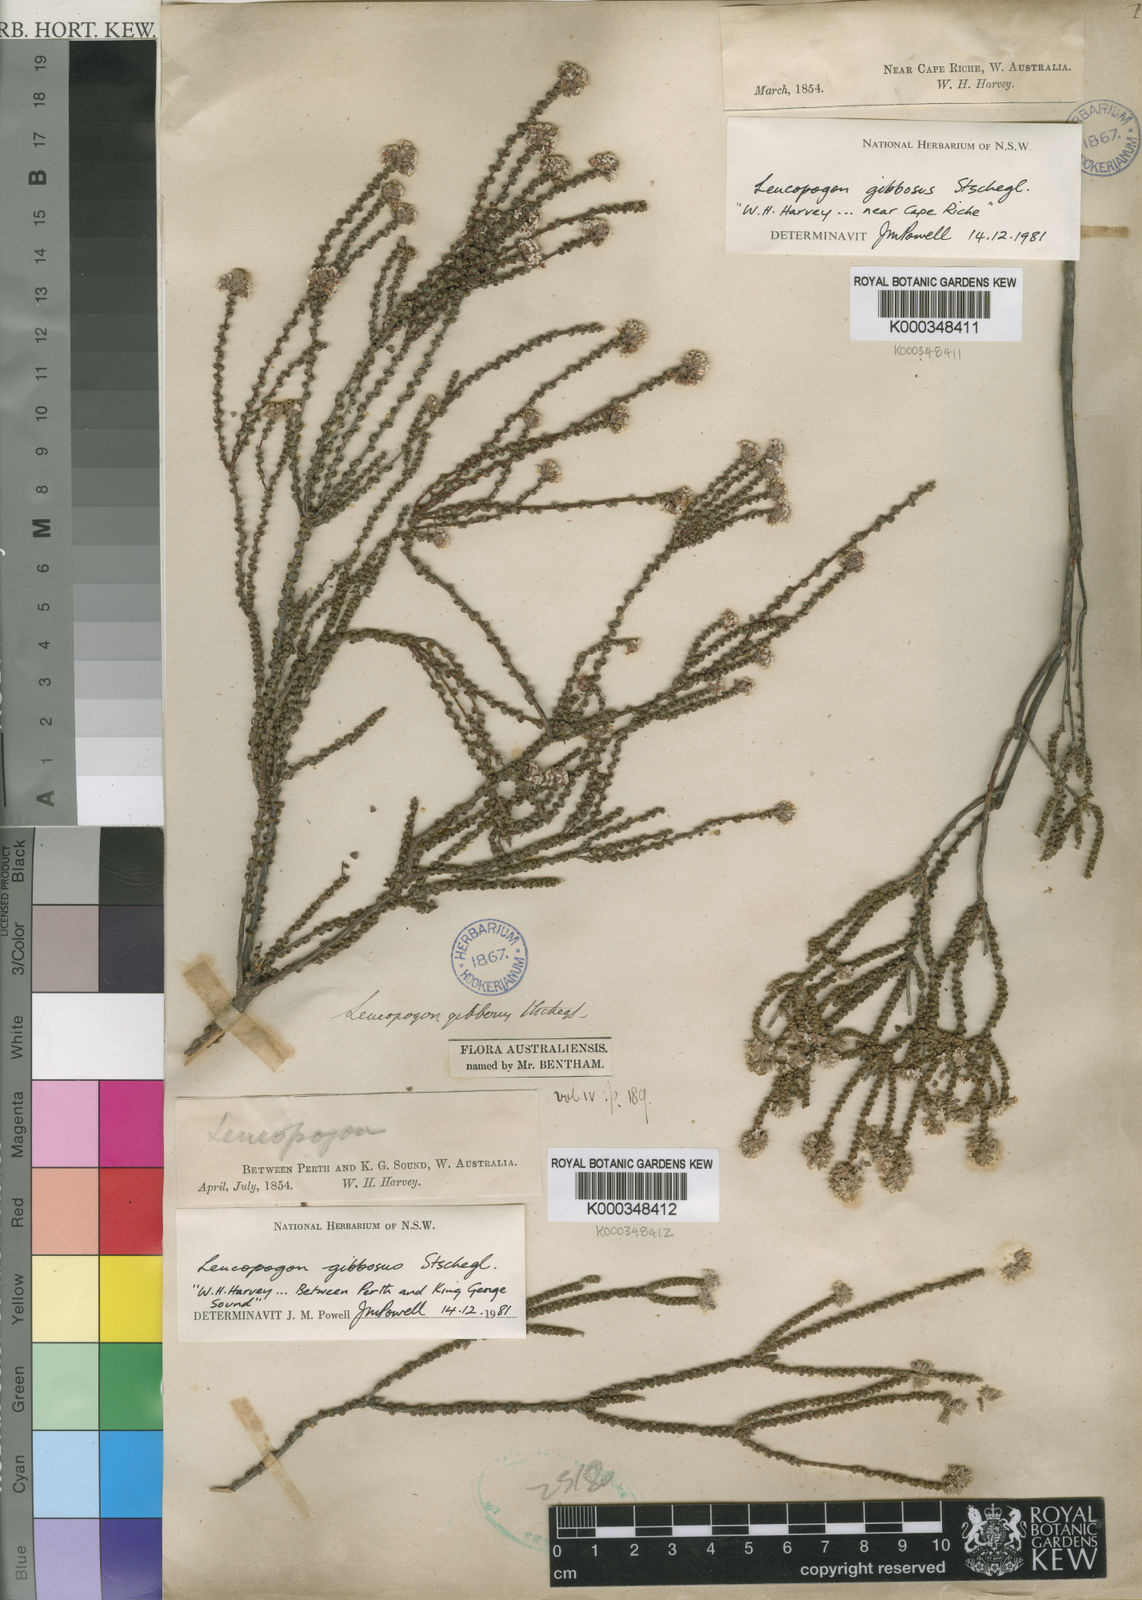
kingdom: Plantae
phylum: Tracheophyta
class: Magnoliopsida
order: Ericales
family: Ericaceae
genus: Leucopogon
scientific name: Leucopogon gibbosus
